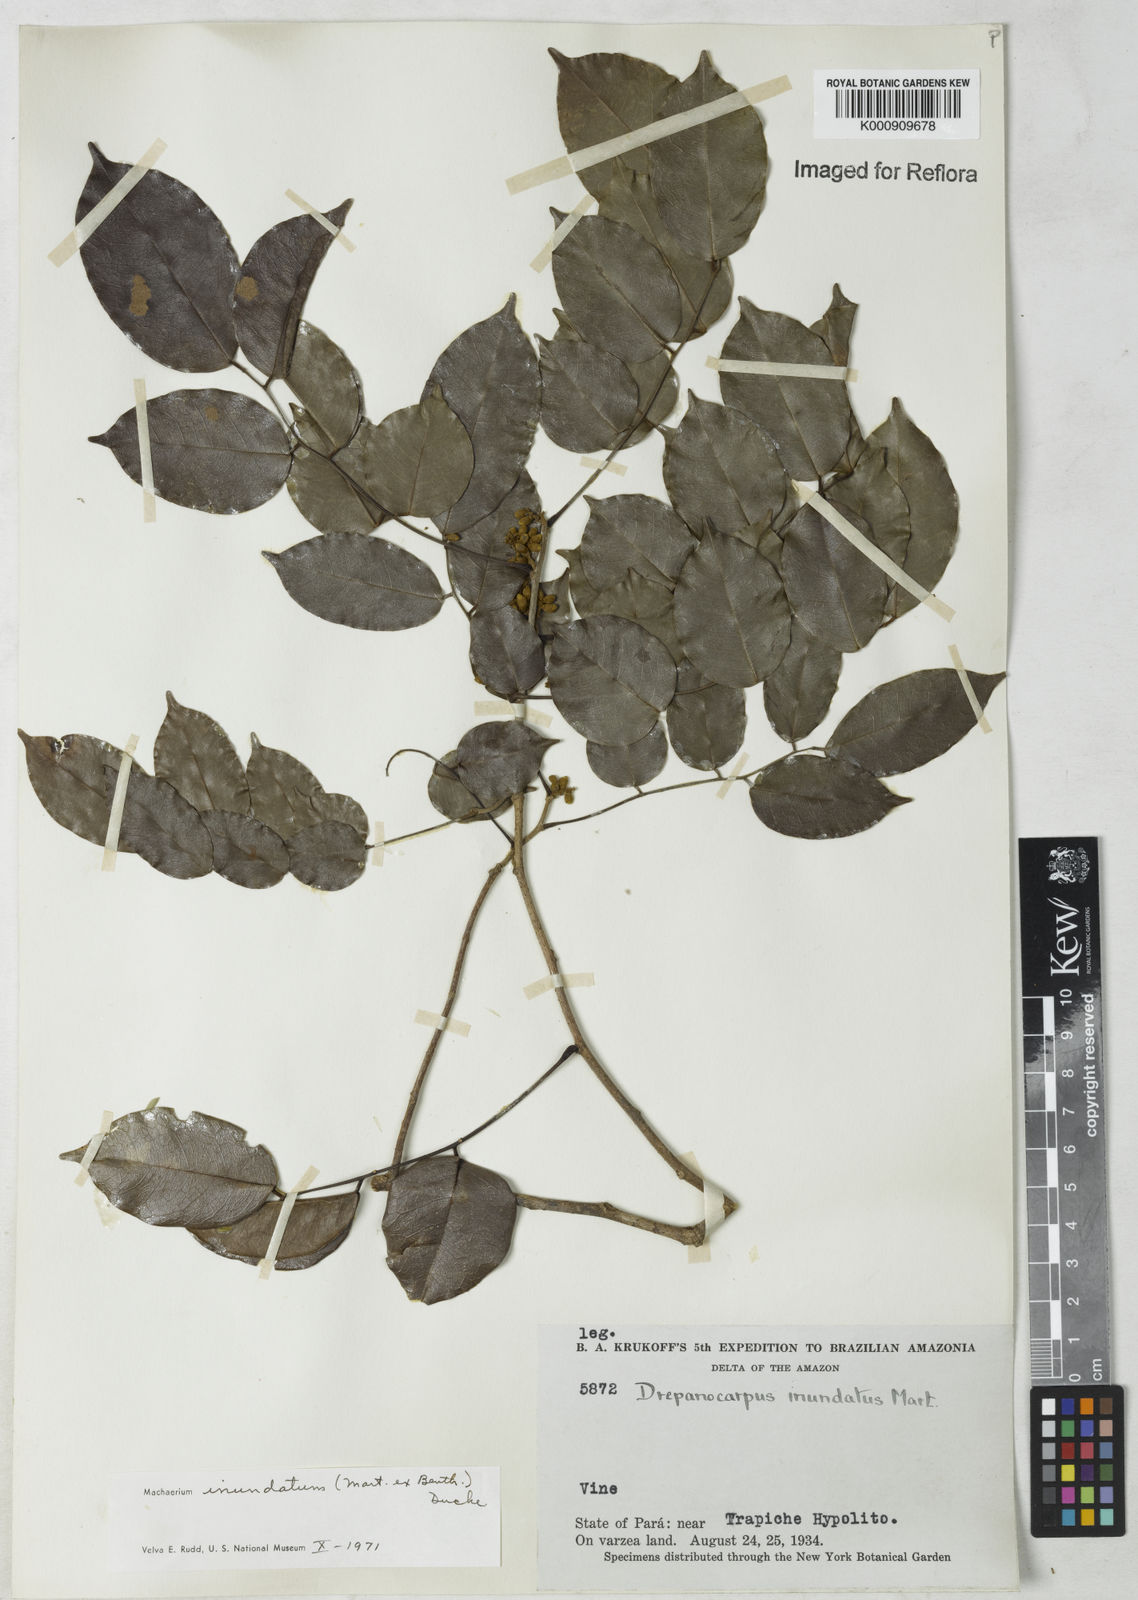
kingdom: Plantae
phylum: Tracheophyta
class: Magnoliopsida
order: Fabales
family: Fabaceae
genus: Machaerium
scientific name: Machaerium inundatum
